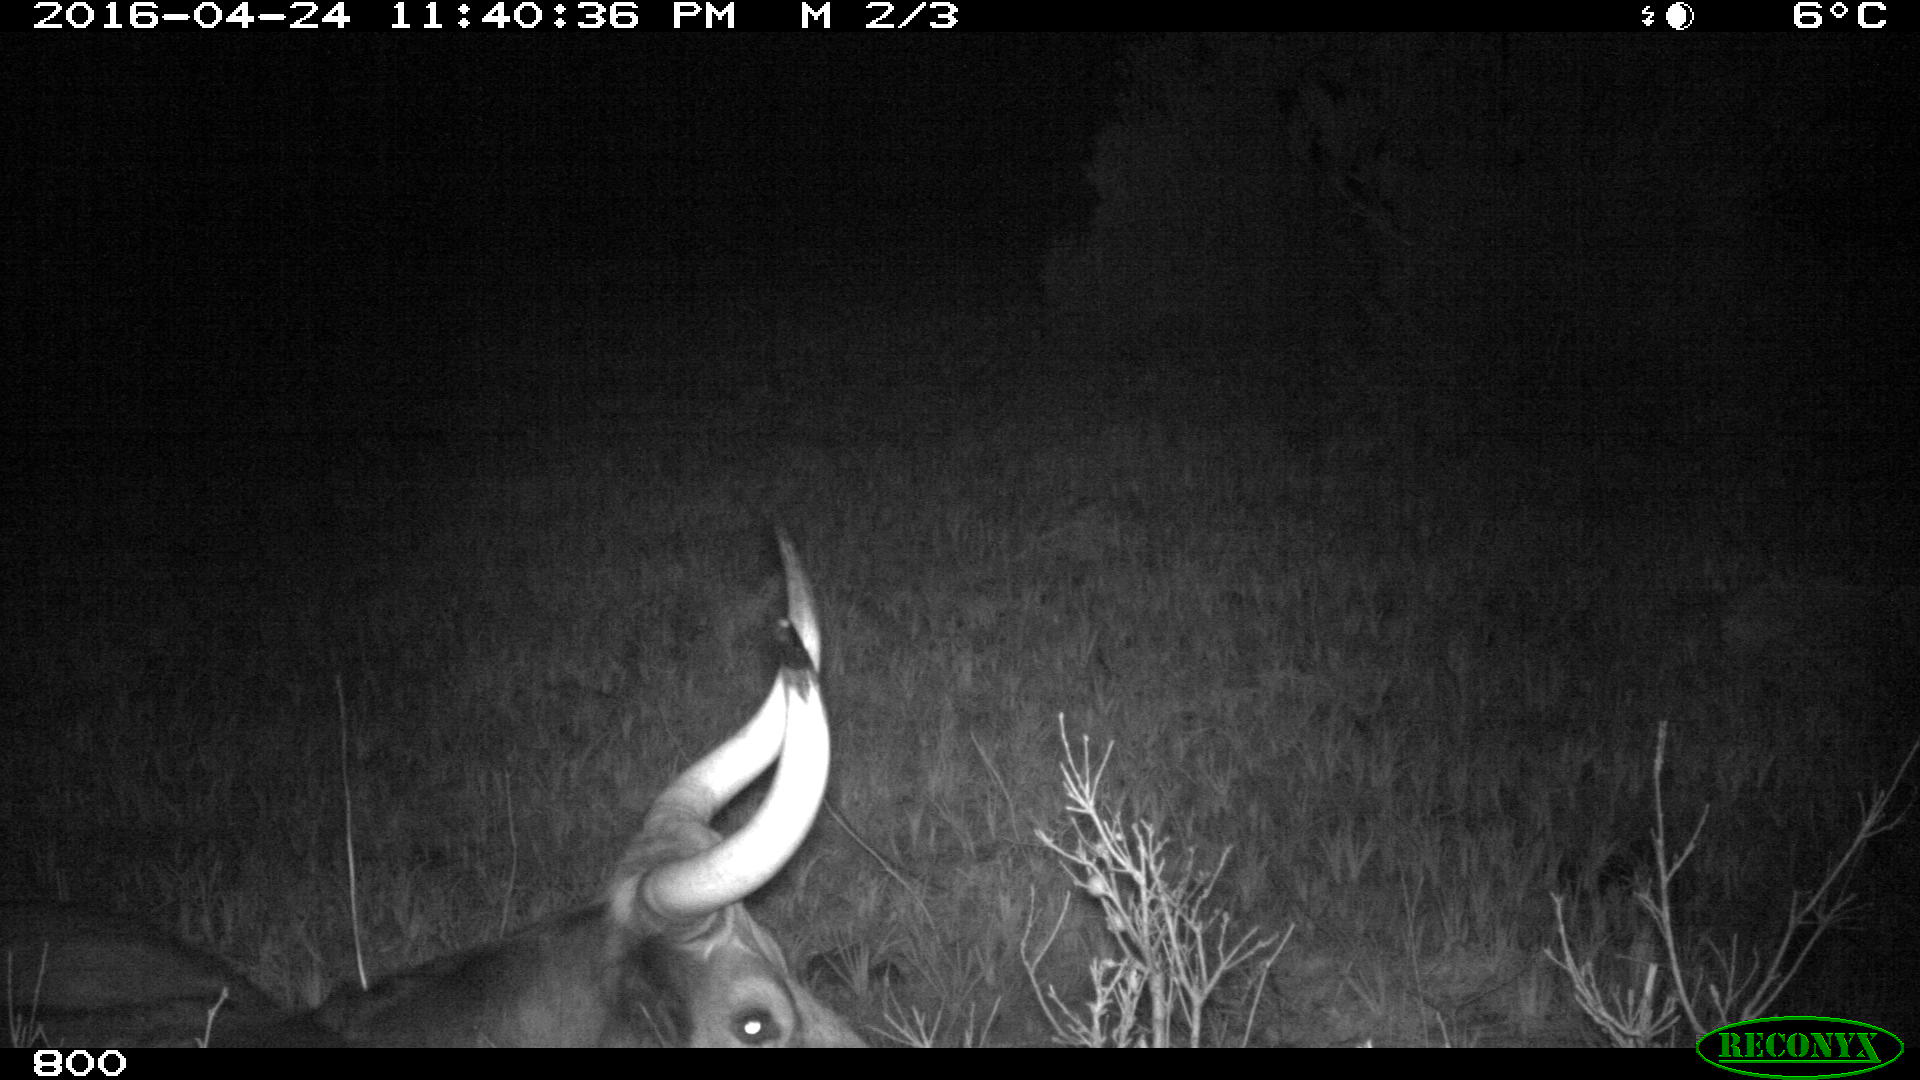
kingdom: Animalia
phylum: Chordata
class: Mammalia
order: Artiodactyla
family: Bovidae
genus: Bos
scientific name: Bos taurus
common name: Domesticated cattle
